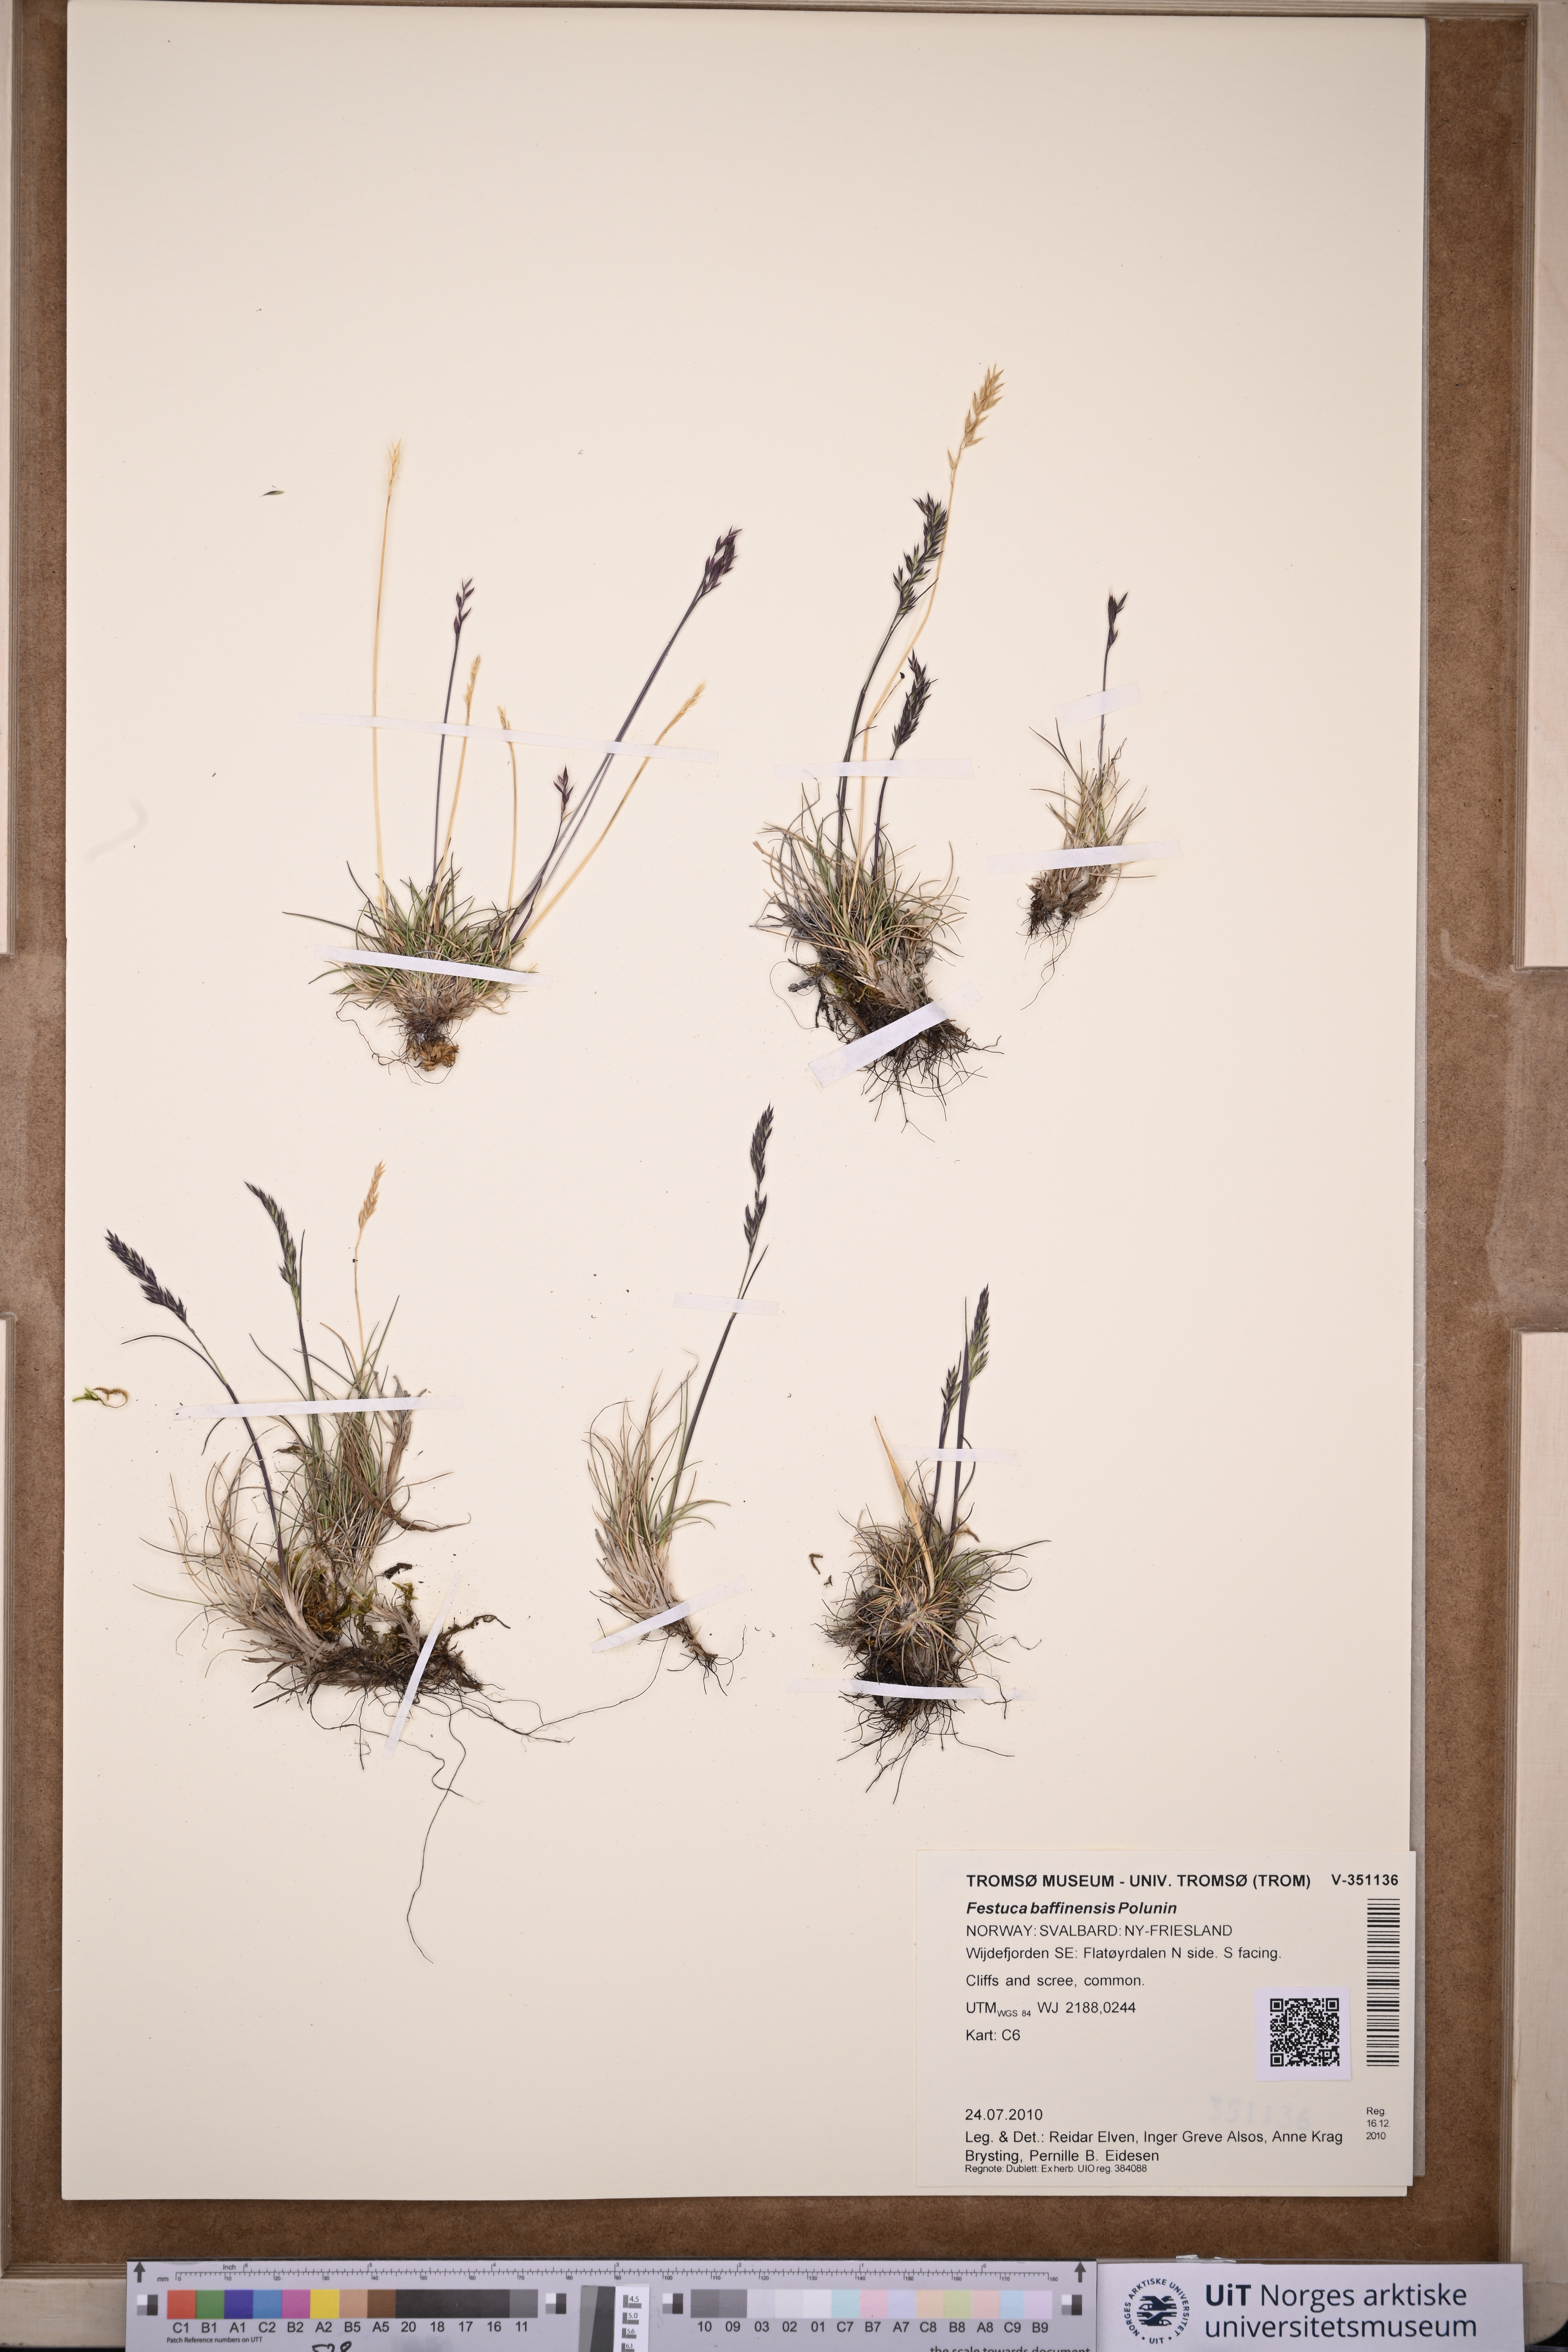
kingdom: Plantae
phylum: Tracheophyta
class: Liliopsida
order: Poales
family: Poaceae
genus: Festuca
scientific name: Festuca baffinensis
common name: Baffin island fescue
